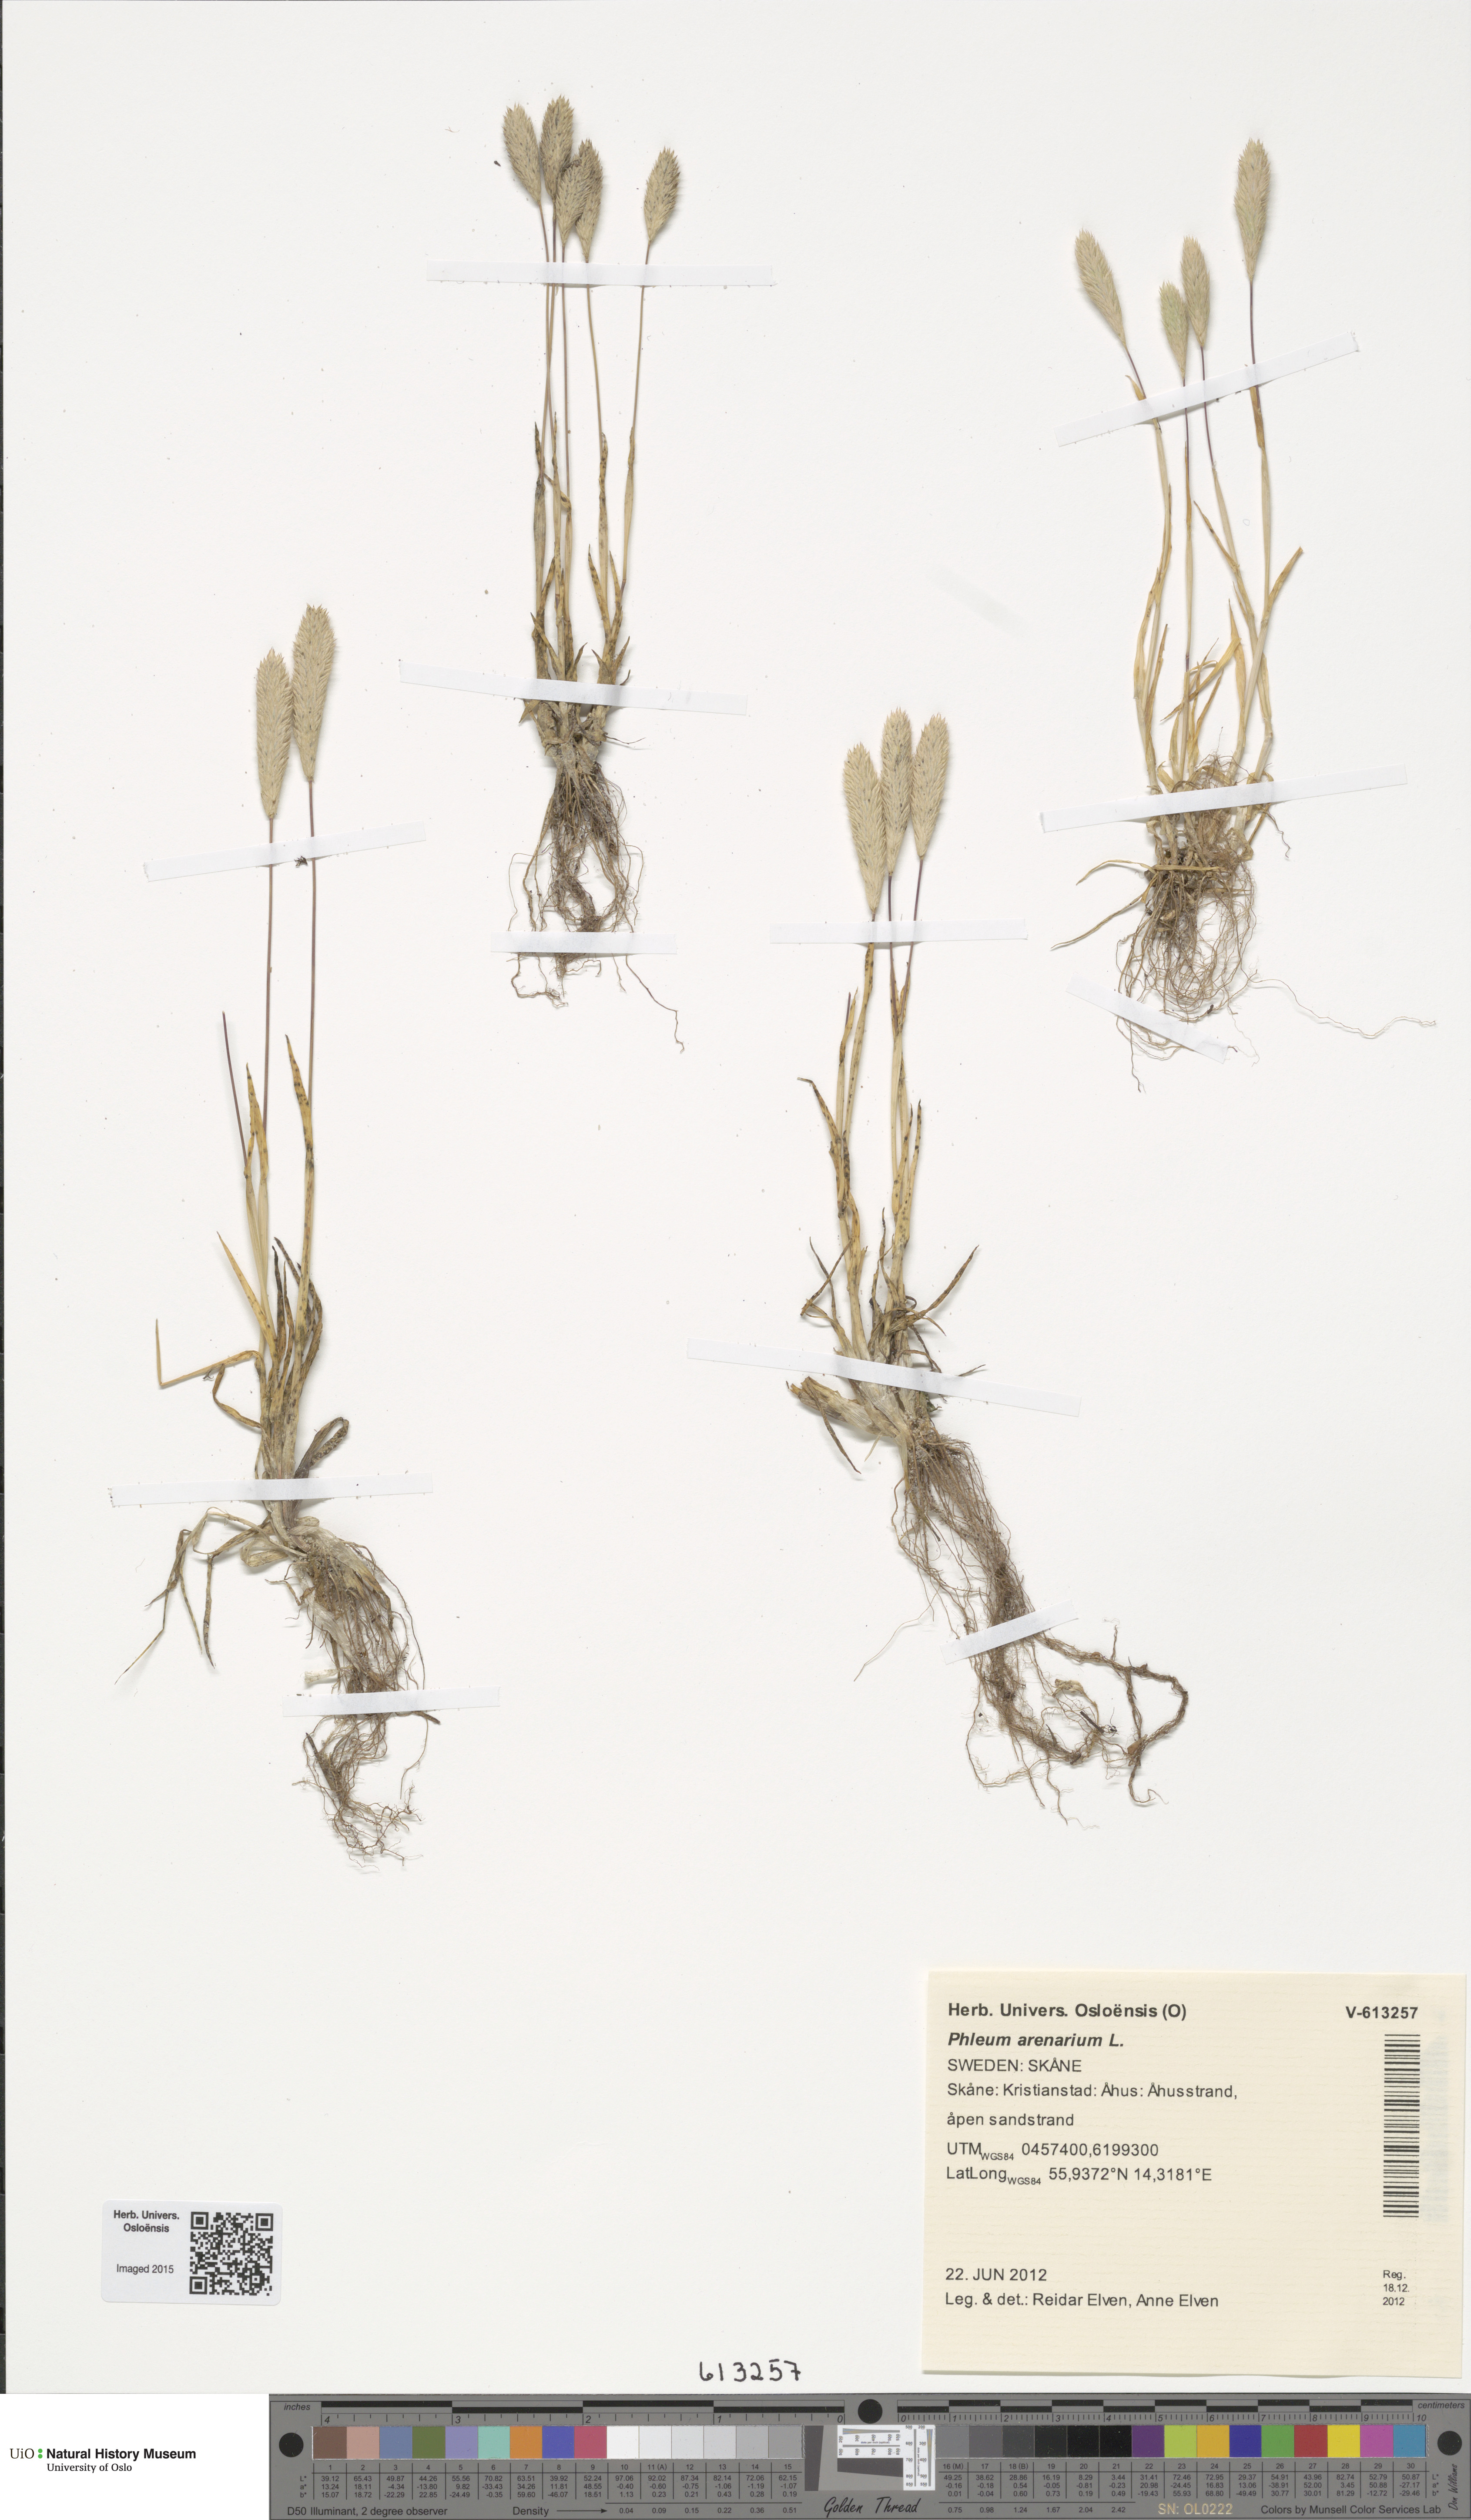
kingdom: Plantae
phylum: Tracheophyta
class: Liliopsida
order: Poales
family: Poaceae
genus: Phleum
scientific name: Phleum arenarium
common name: Sand cat's-tail
